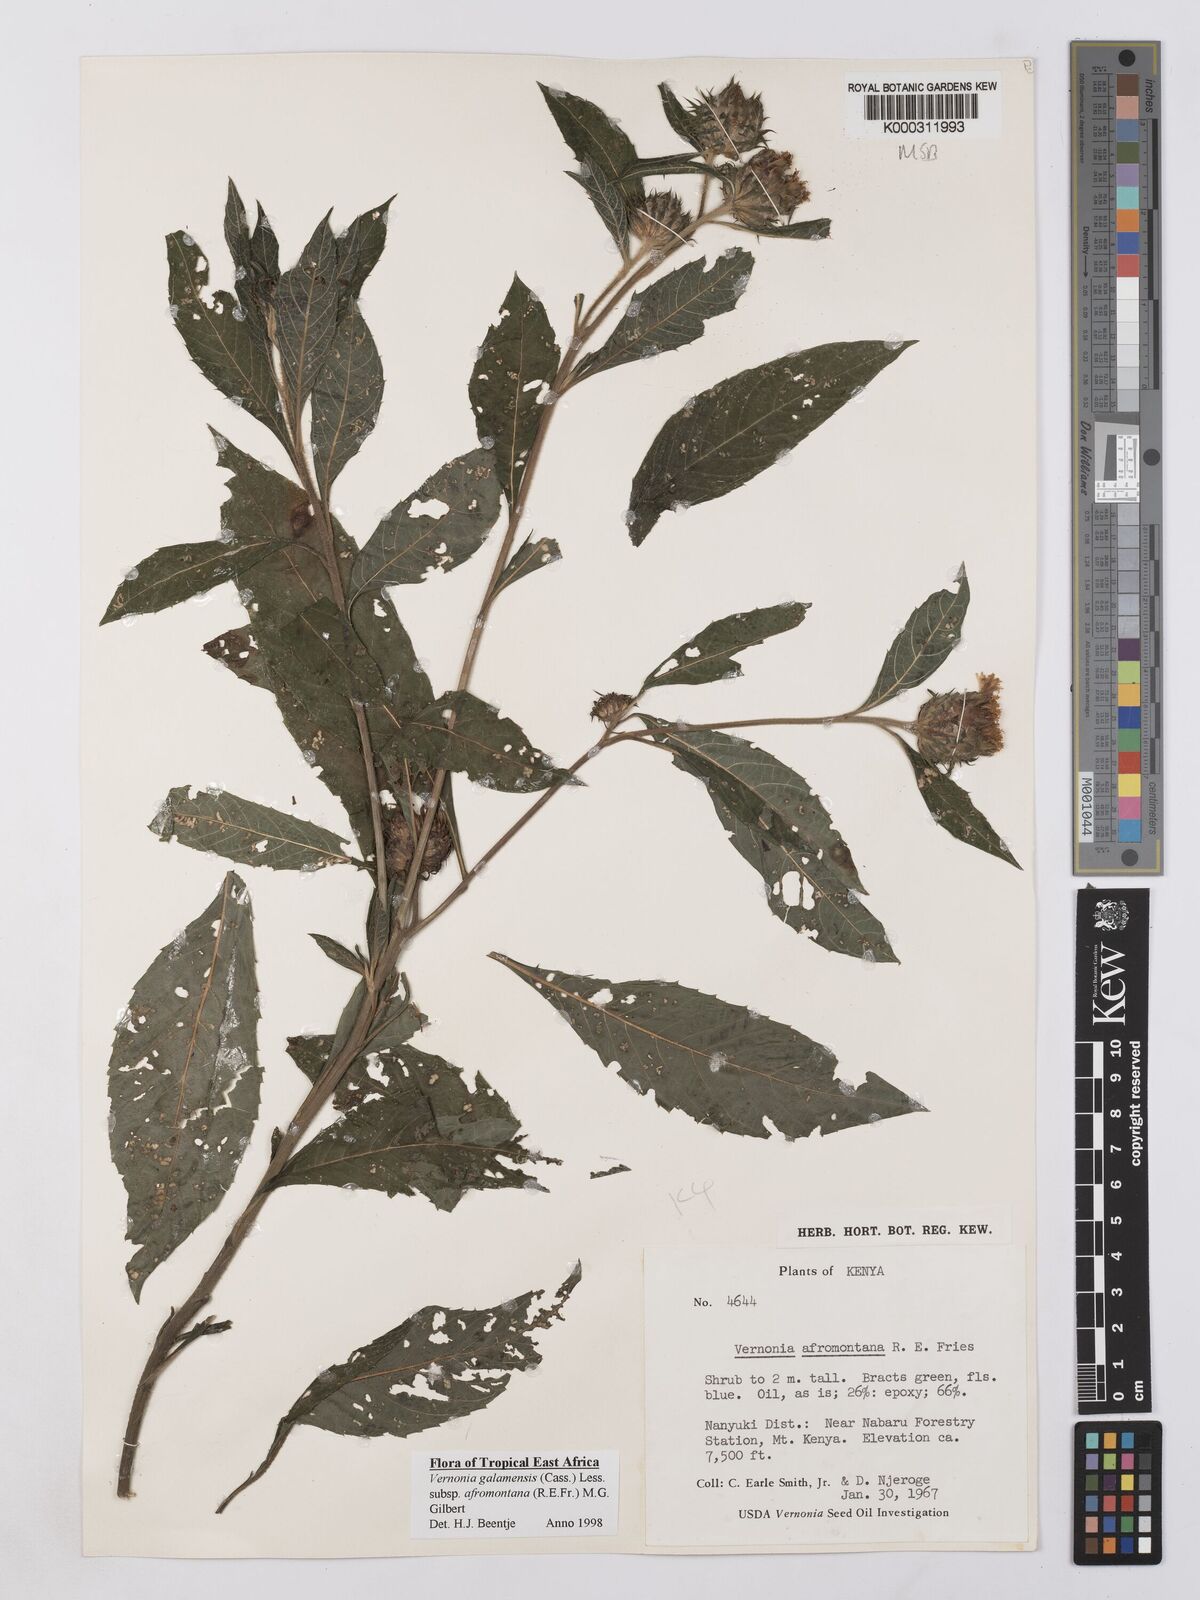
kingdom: Plantae
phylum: Tracheophyta
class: Magnoliopsida
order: Asterales
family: Asteraceae
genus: Vernonia
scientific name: Vernonia galamensis
